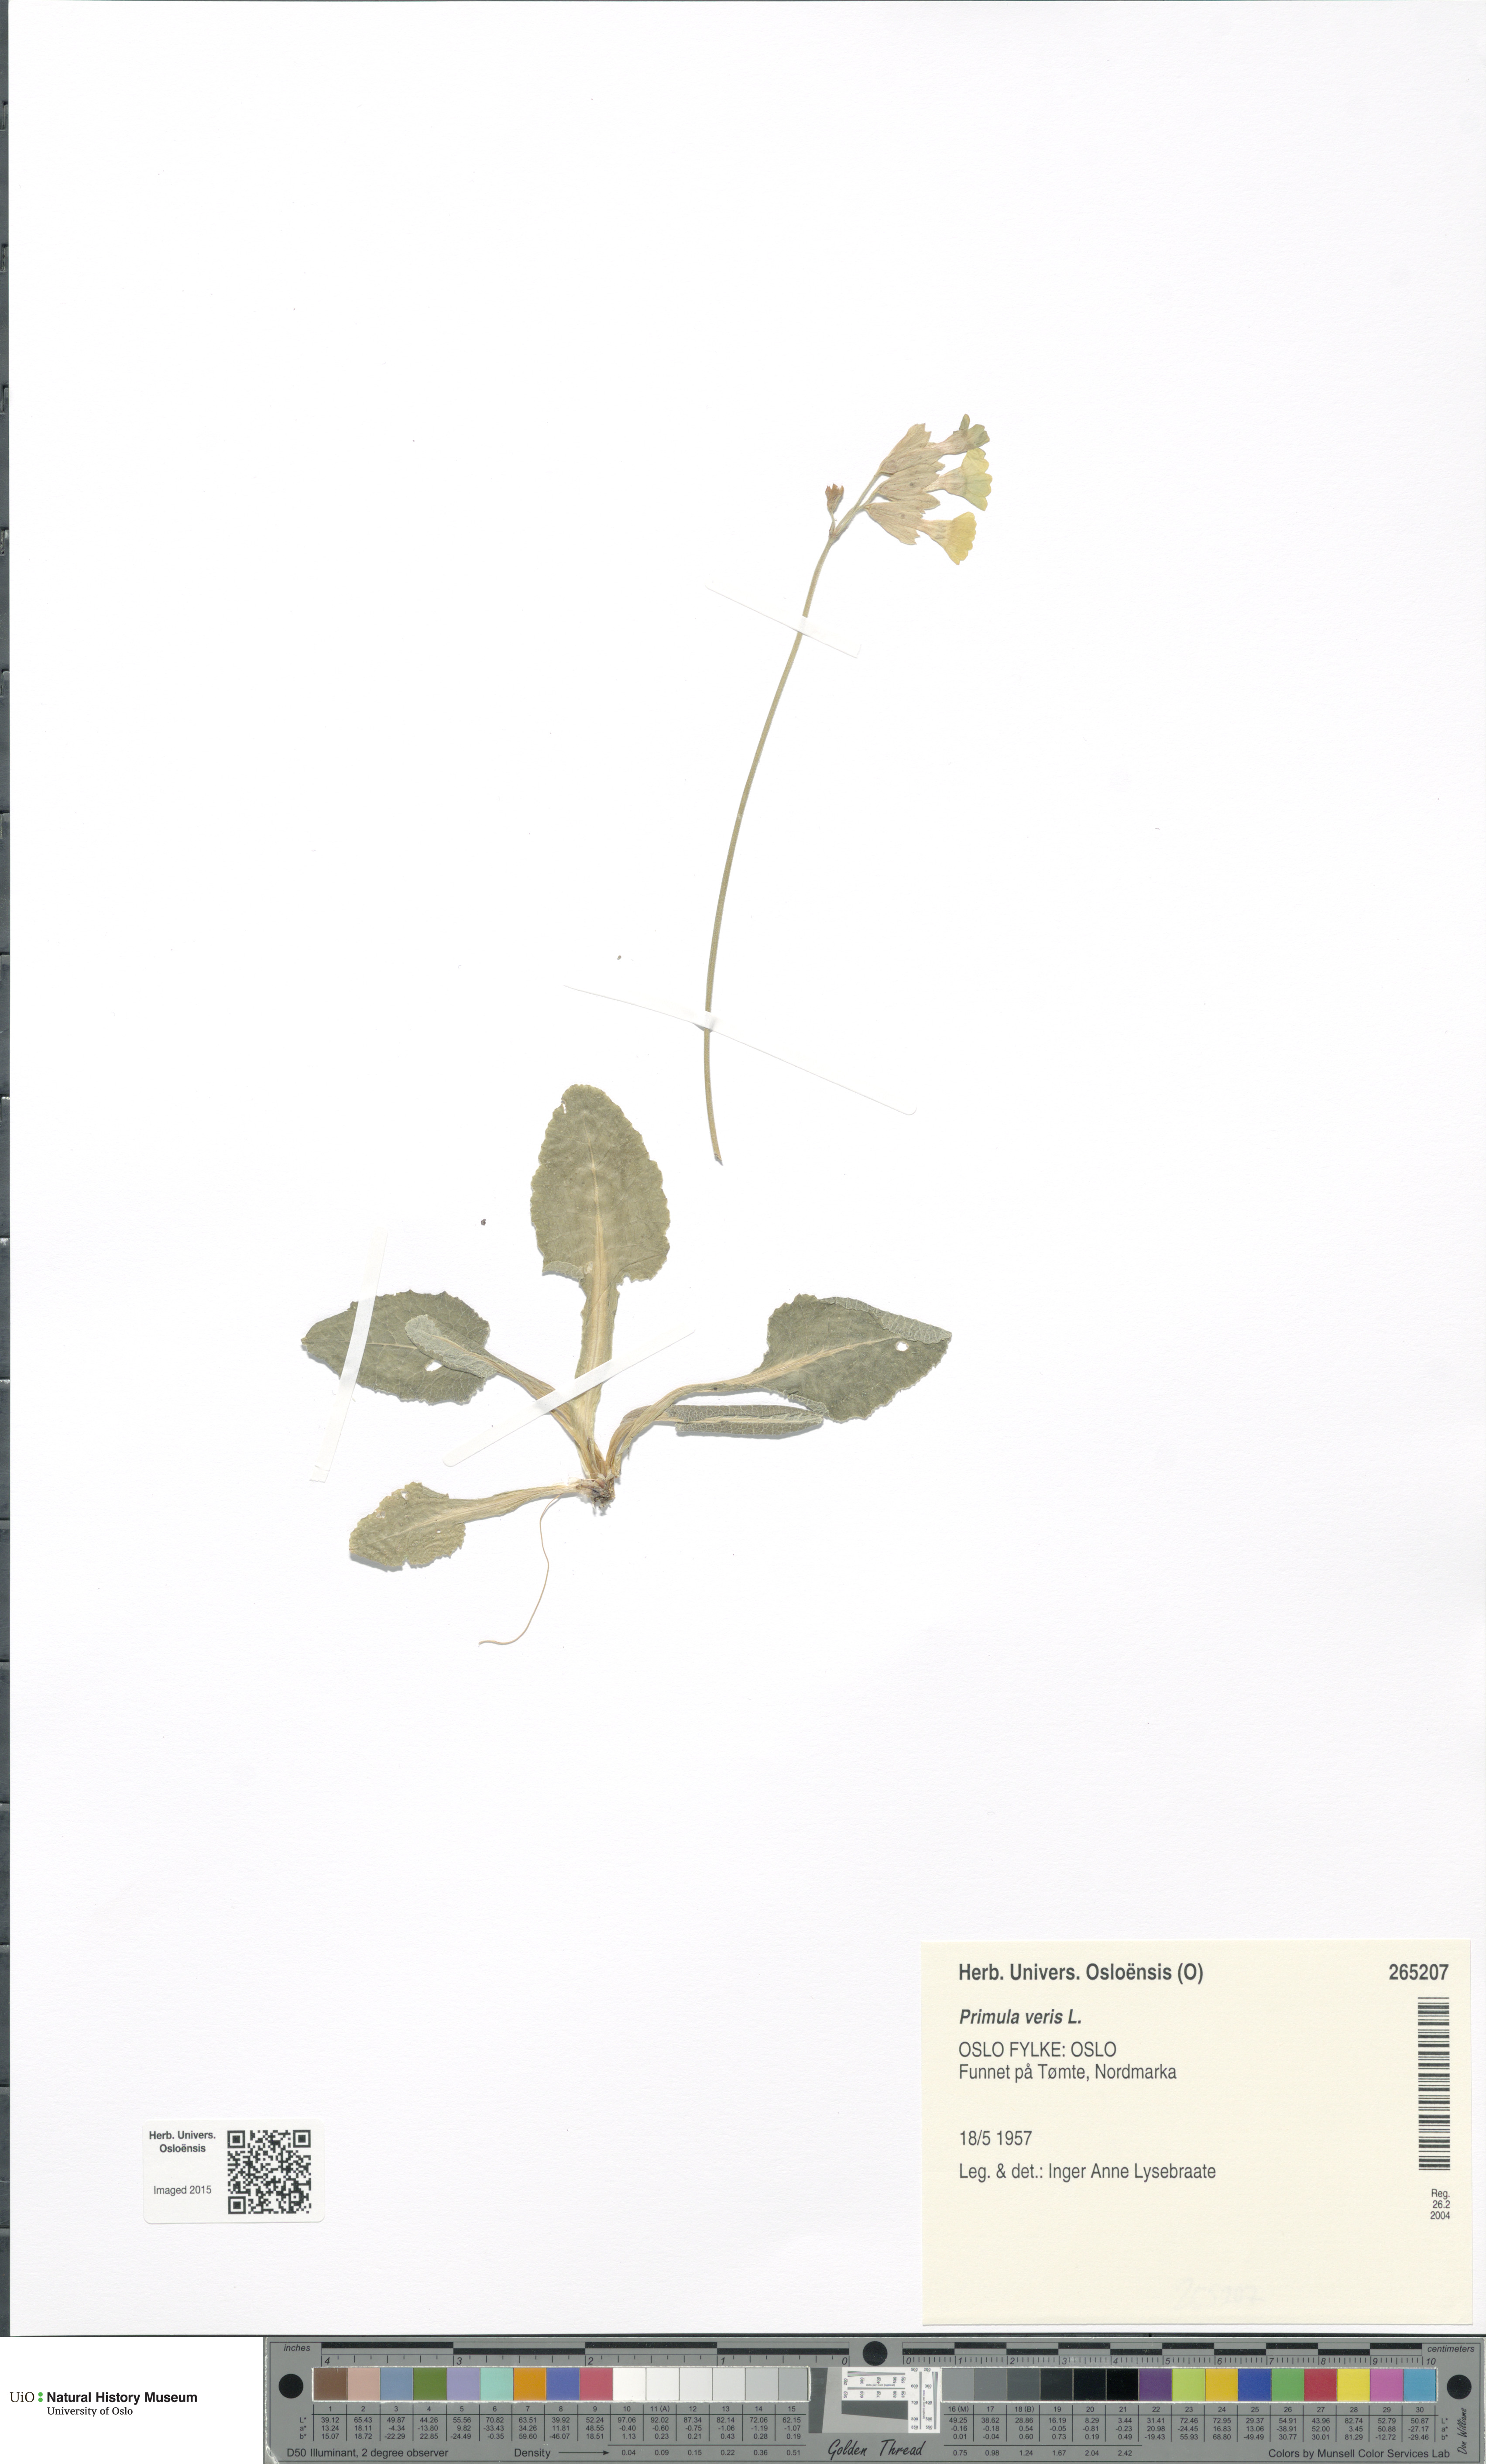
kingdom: Plantae
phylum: Tracheophyta
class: Magnoliopsida
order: Ericales
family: Primulaceae
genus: Primula
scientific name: Primula veris
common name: Cowslip
